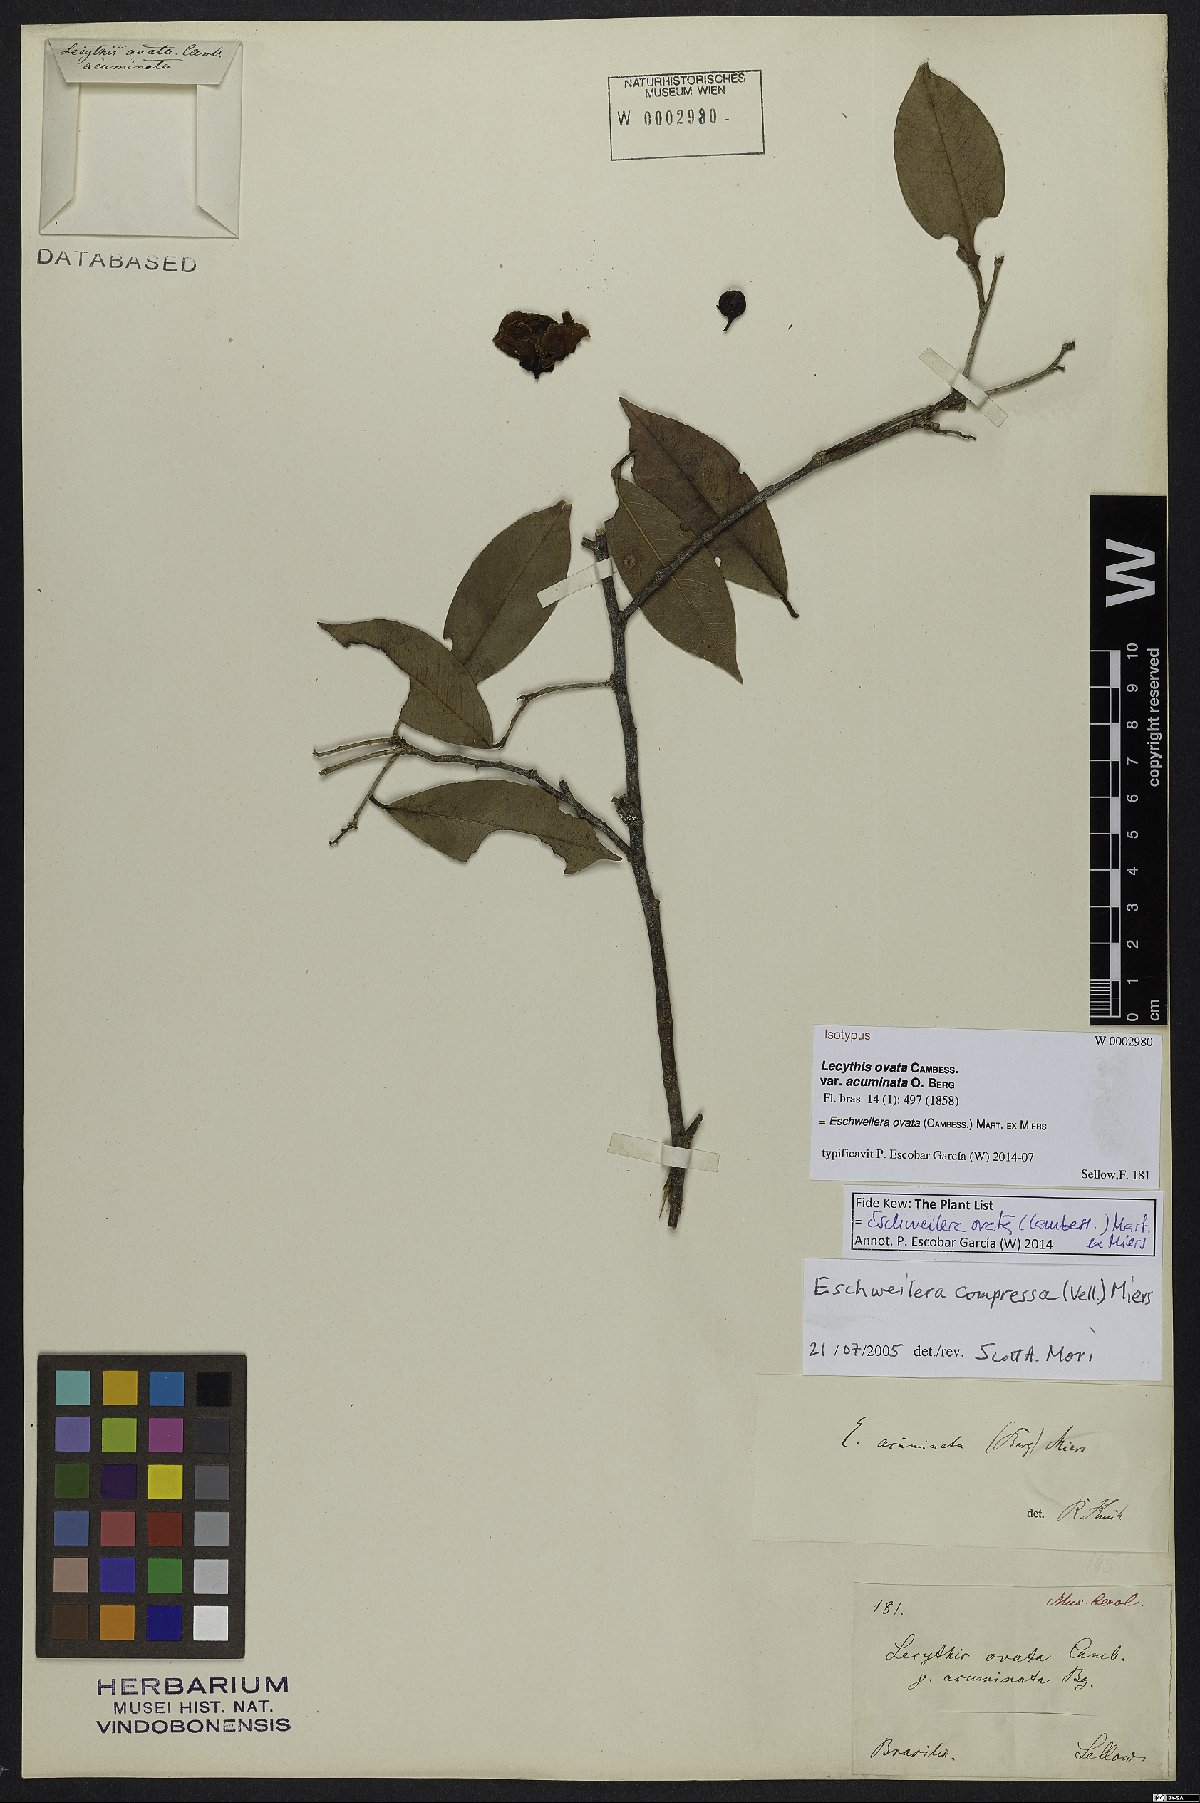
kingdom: Plantae
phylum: Tracheophyta
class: Magnoliopsida
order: Ericales
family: Lecythidaceae
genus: Eschweilera
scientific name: Eschweilera ovata
